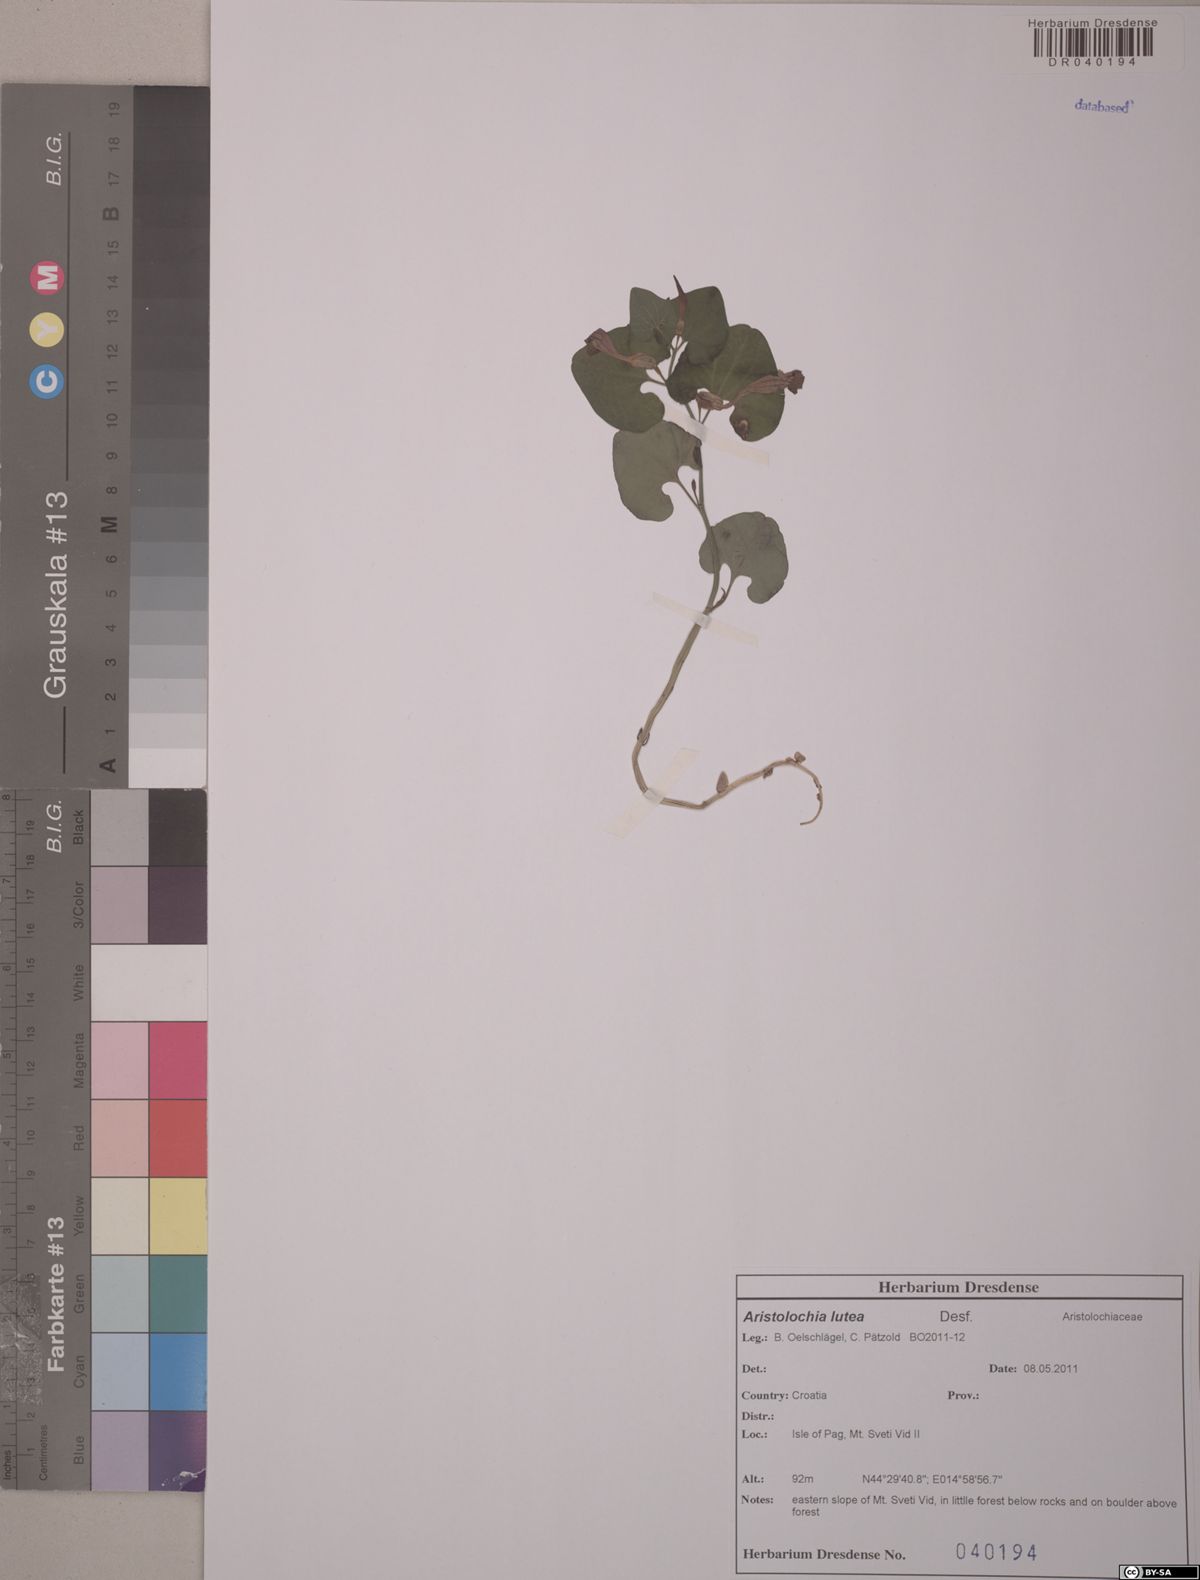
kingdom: Plantae
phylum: Tracheophyta
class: Magnoliopsida
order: Piperales
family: Aristolochiaceae
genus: Aristolochia
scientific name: Aristolochia lutea
